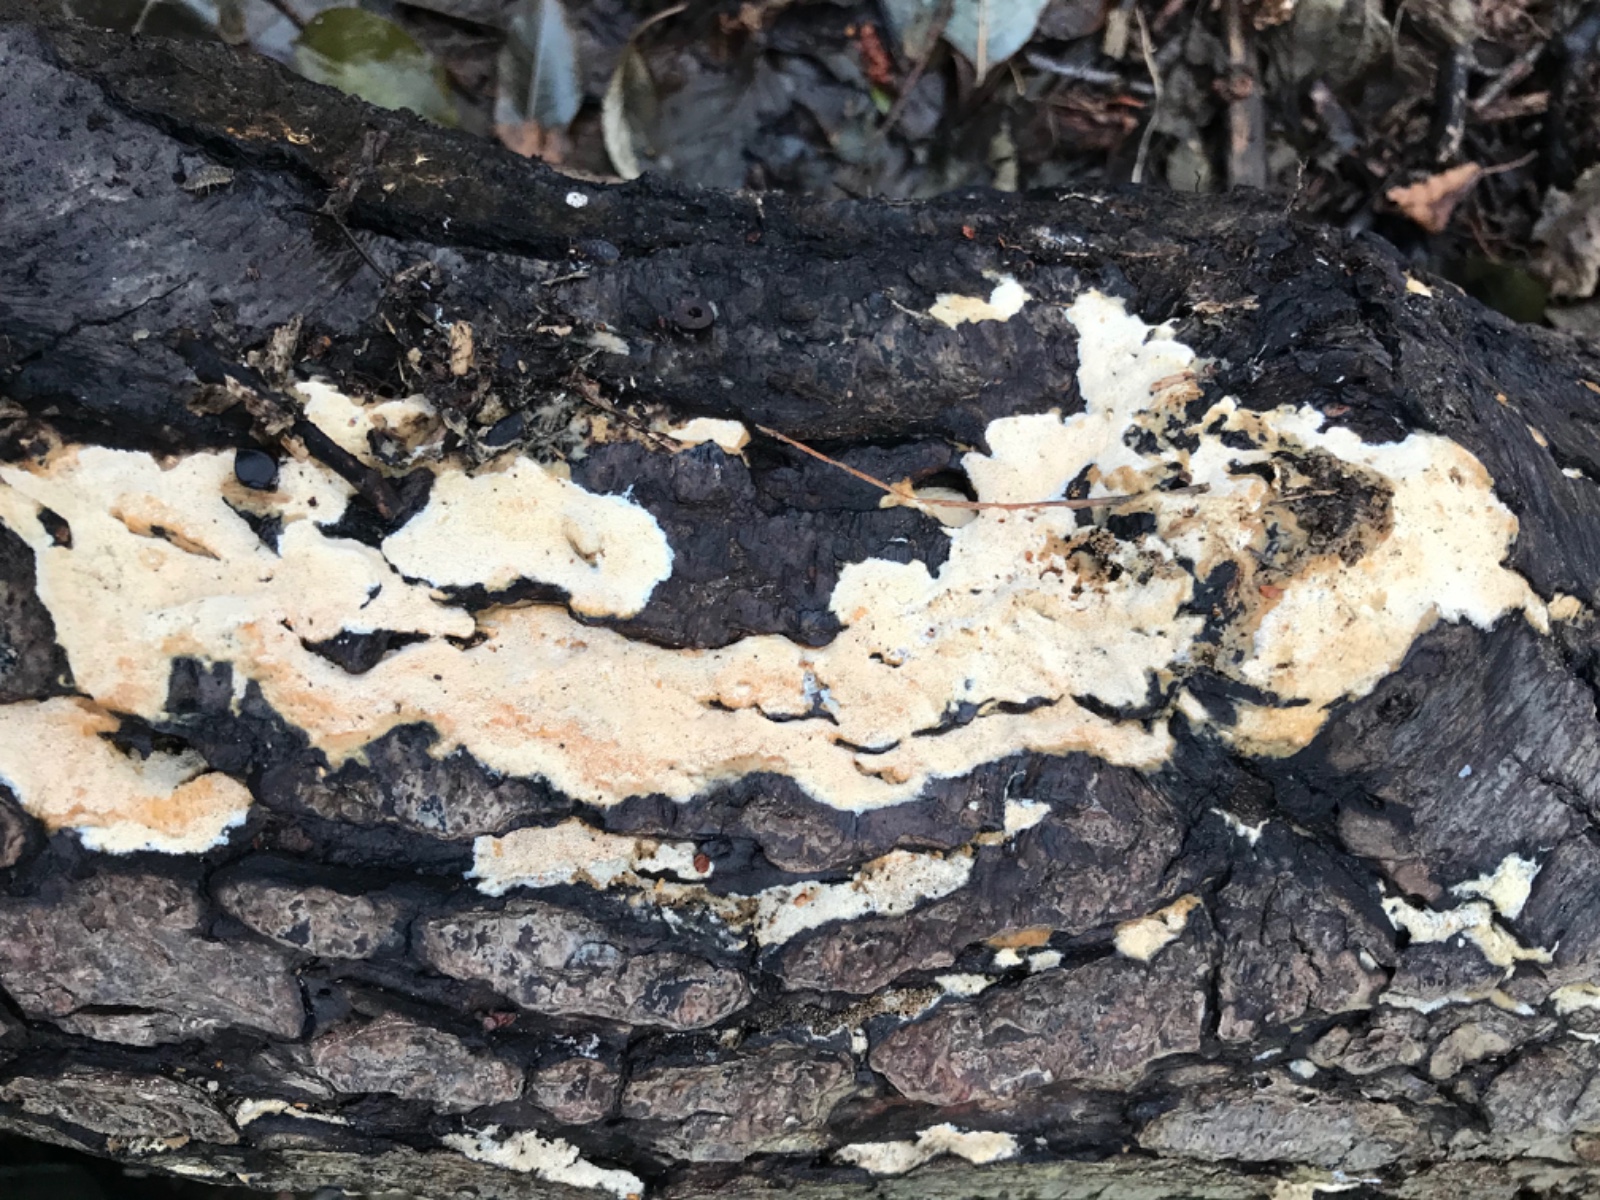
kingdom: Fungi
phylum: Basidiomycota
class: Agaricomycetes
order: Polyporales
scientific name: Polyporales
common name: poresvampordenen
